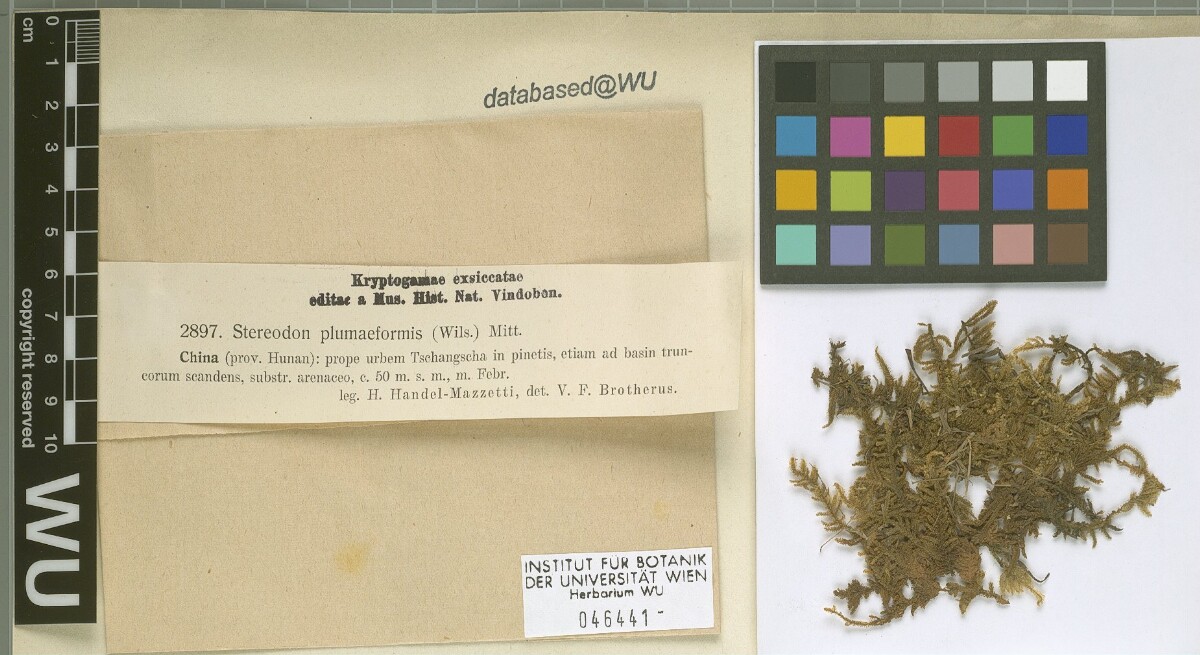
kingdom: Plantae
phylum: Bryophyta
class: Bryopsida
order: Hypnales
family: Hypnaceae
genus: Hypnum
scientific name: Hypnum plumaeforme
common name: Cypress-leaved plaitmoss
